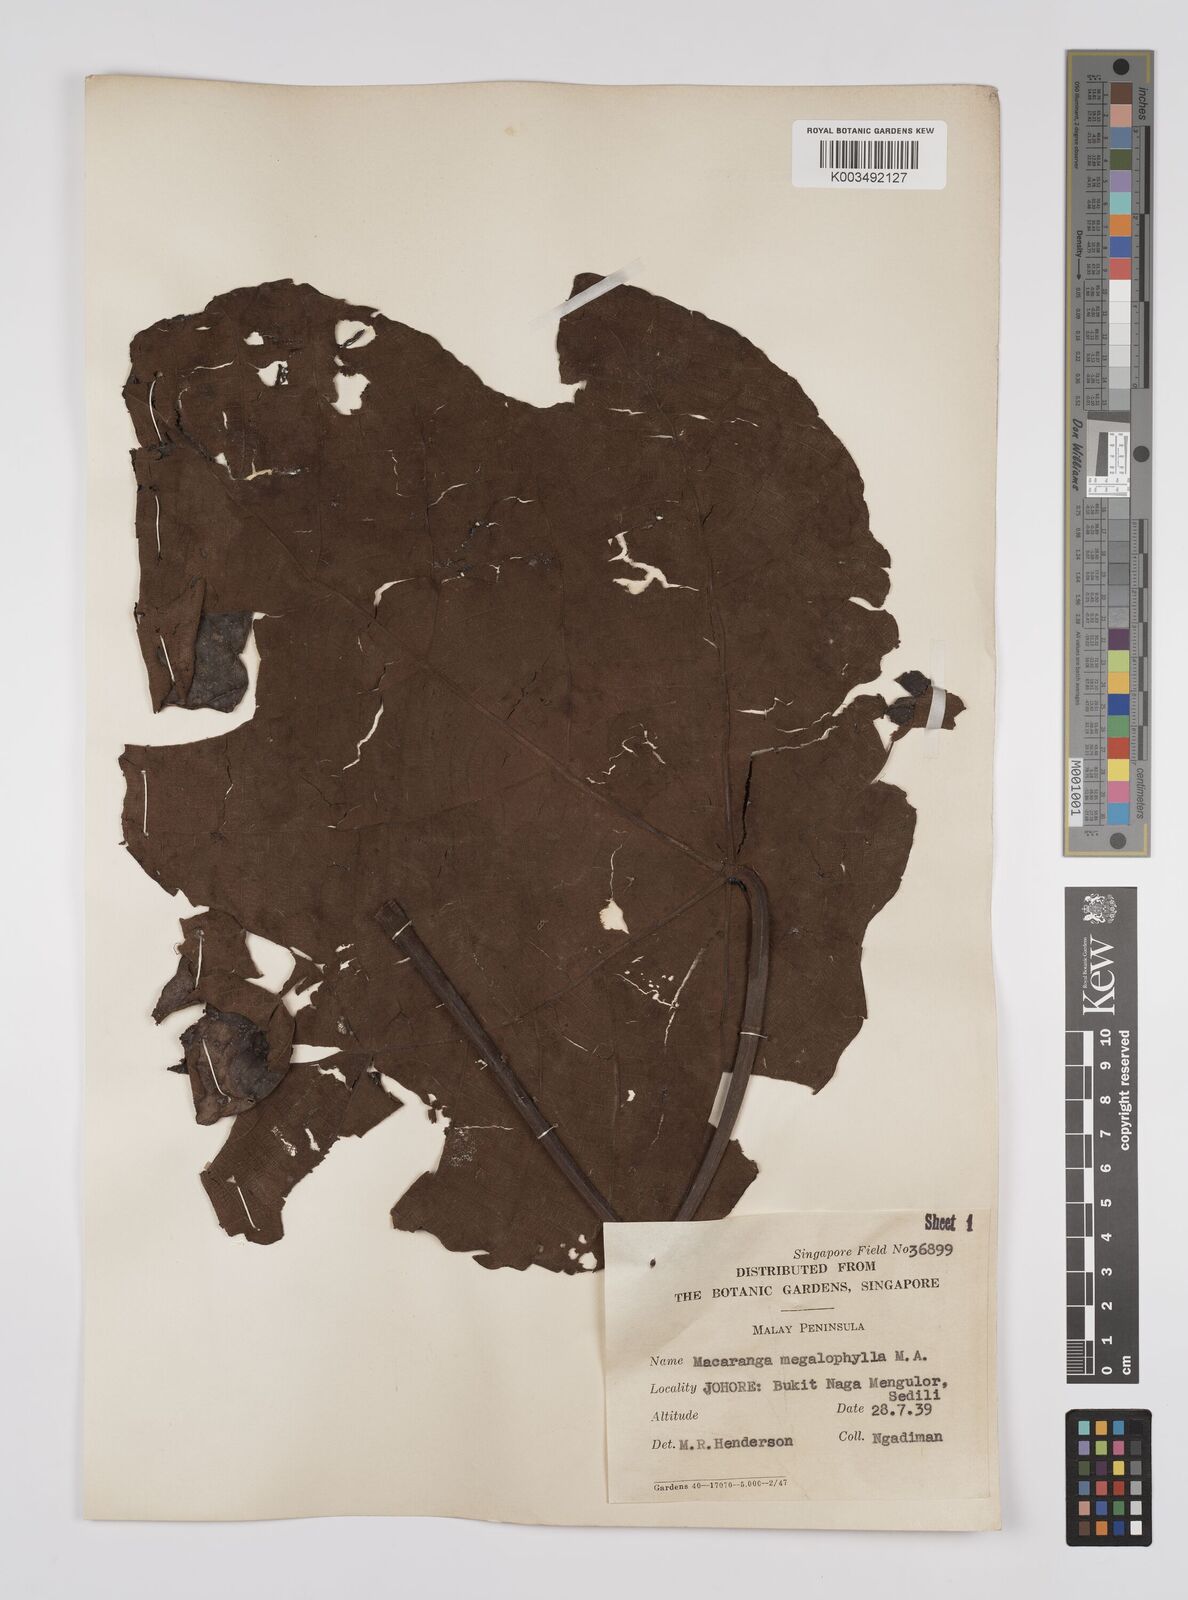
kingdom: Plantae
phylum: Tracheophyta
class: Magnoliopsida
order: Malpighiales
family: Euphorbiaceae
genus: Macaranga
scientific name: Macaranga gigantea
